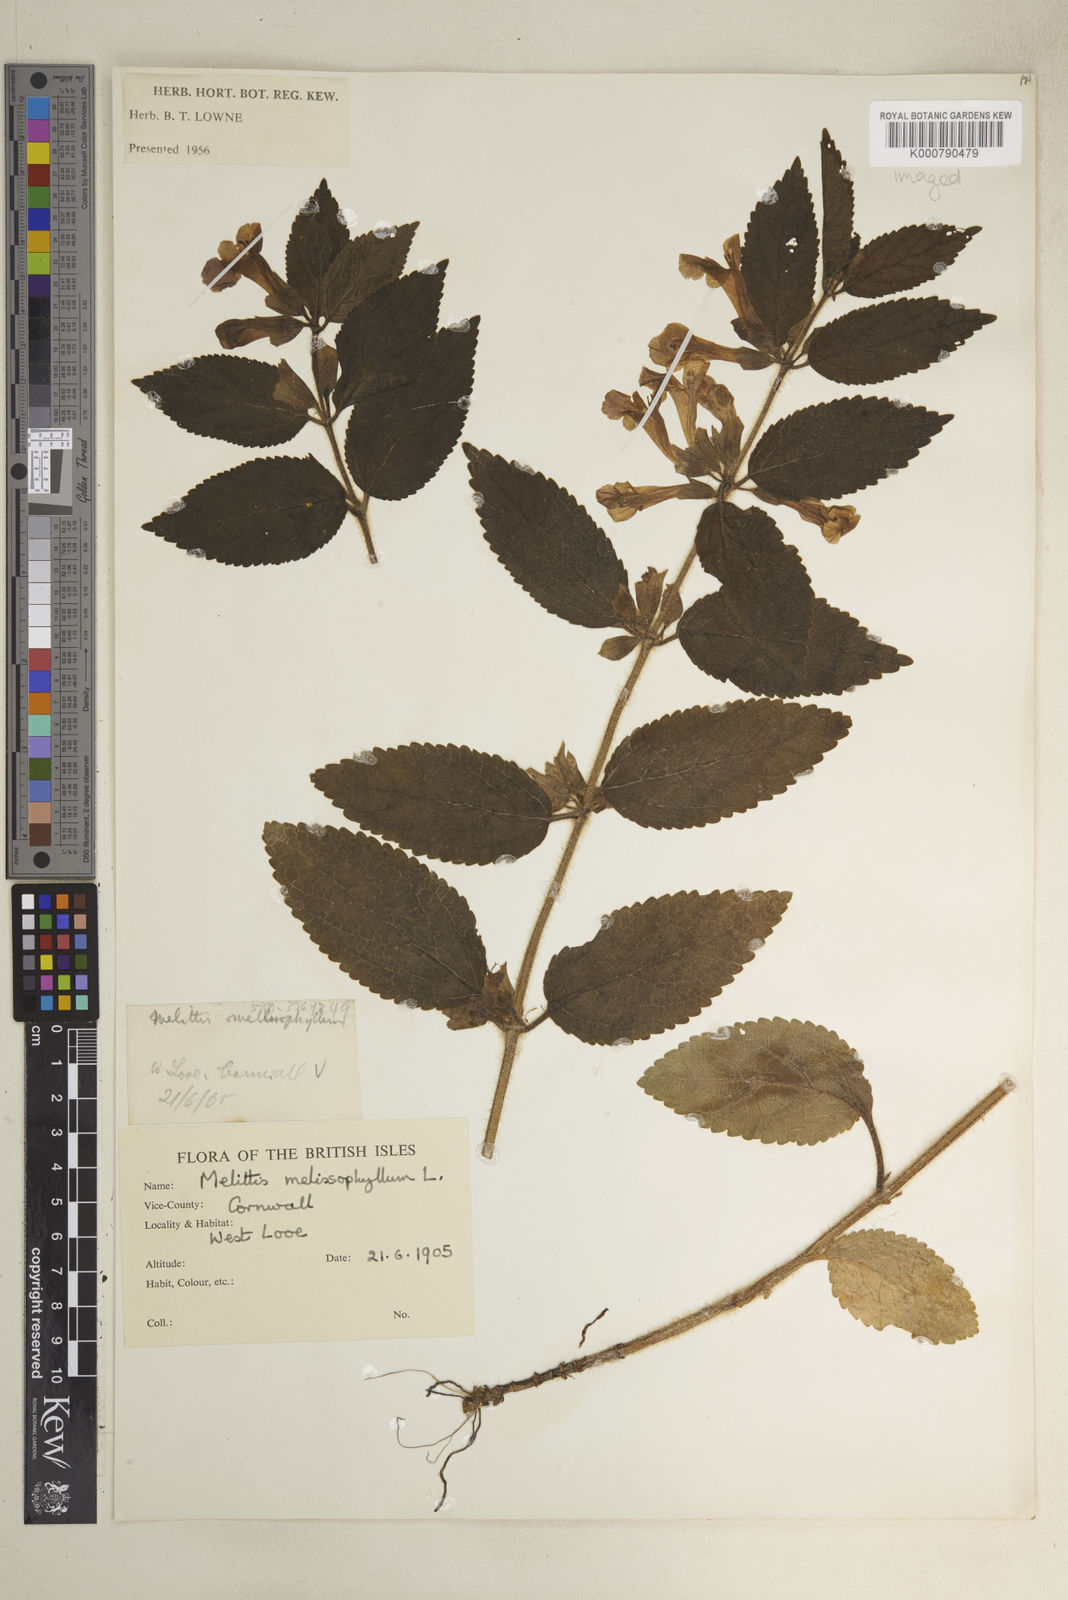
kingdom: Plantae
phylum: Tracheophyta
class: Magnoliopsida
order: Lamiales
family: Lamiaceae
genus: Melittis
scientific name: Melittis melissophyllum
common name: Bastard balm
